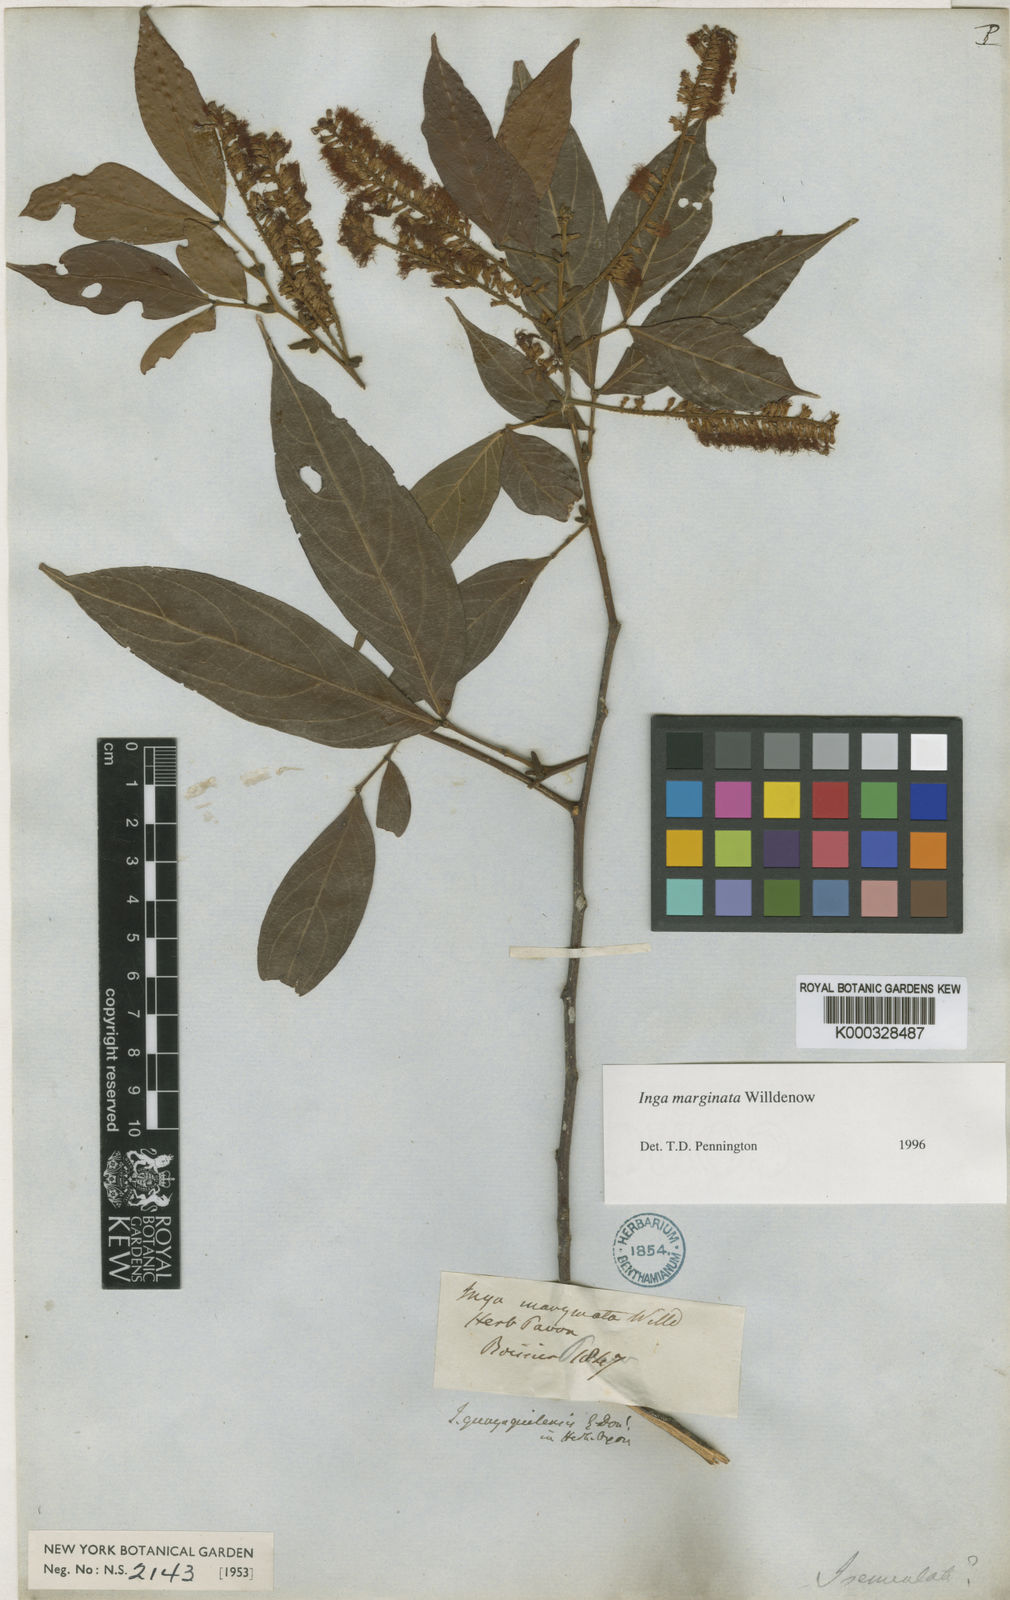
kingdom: Plantae
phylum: Tracheophyta
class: Magnoliopsida
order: Fabales
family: Fabaceae
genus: Inga
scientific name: Inga marginata
